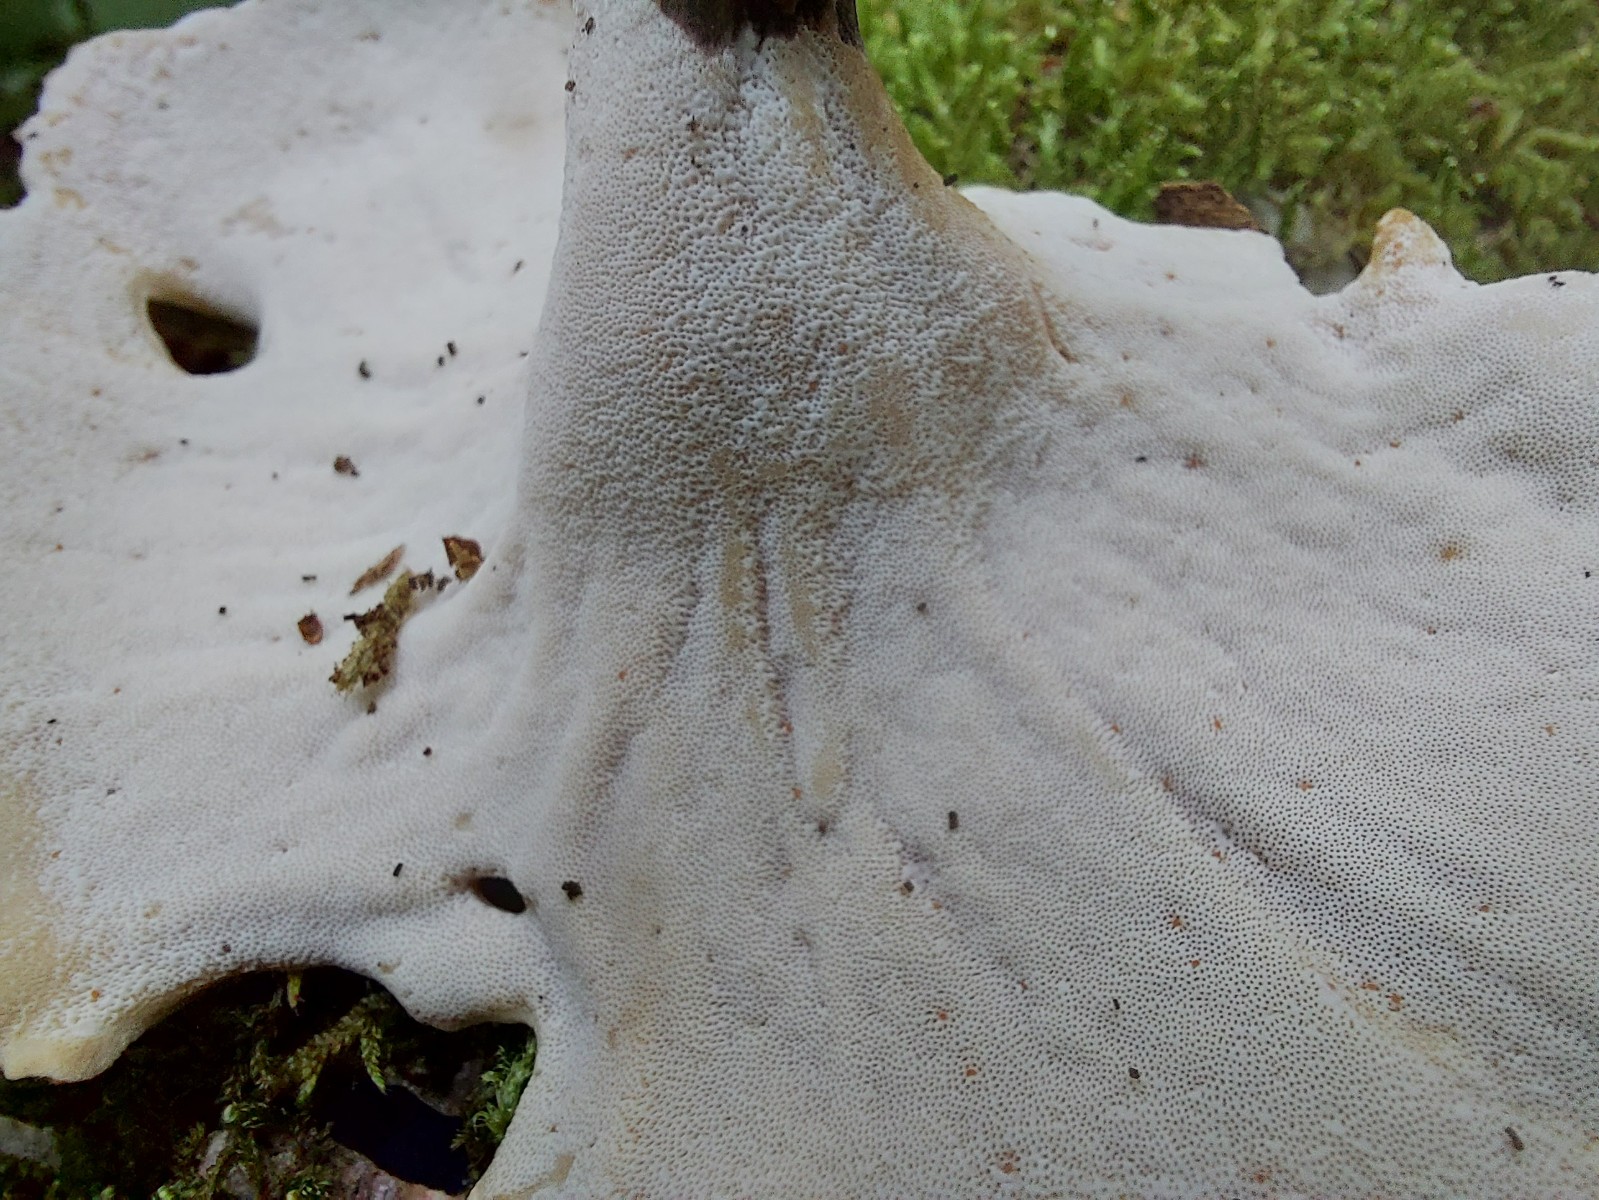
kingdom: Fungi
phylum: Basidiomycota
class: Agaricomycetes
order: Polyporales
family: Polyporaceae
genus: Picipes
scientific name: Picipes tubaeformis
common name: trompet-stilkporesvamp
